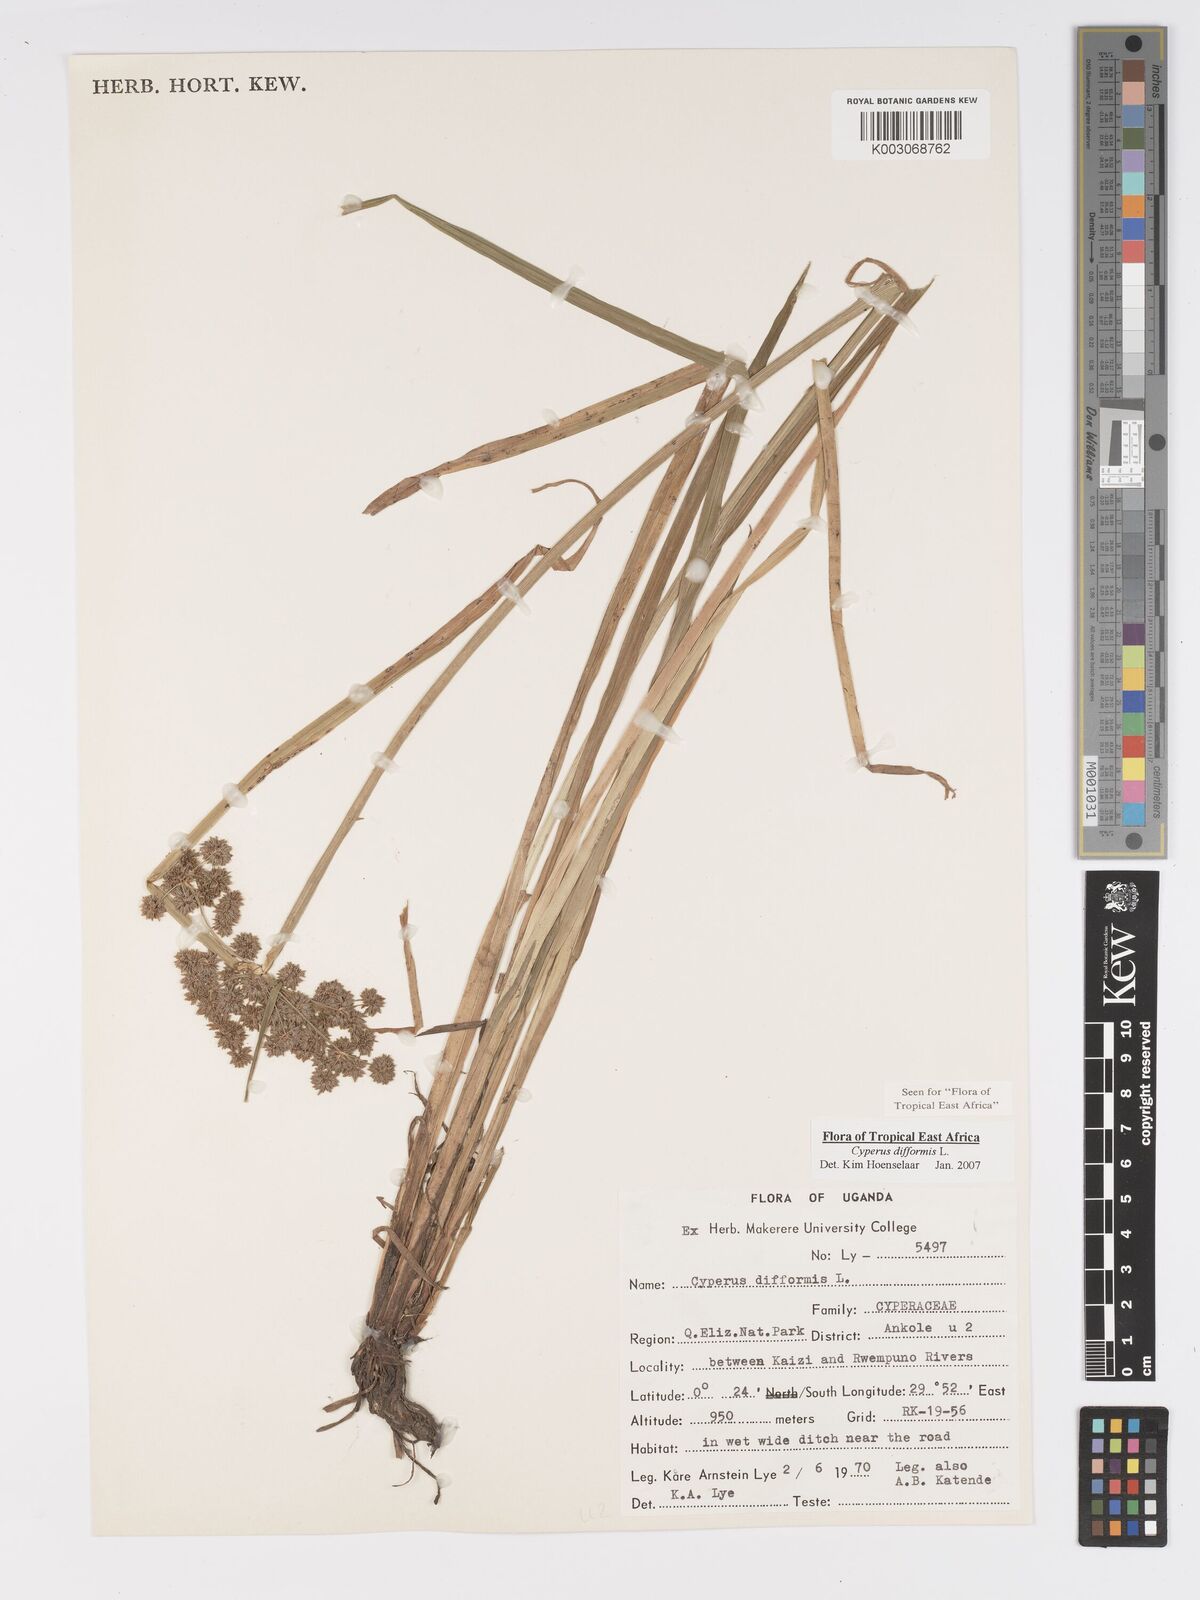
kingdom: Plantae
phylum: Tracheophyta
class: Liliopsida
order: Poales
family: Cyperaceae
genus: Cyperus
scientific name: Cyperus difformis
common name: Variable flatsedge
